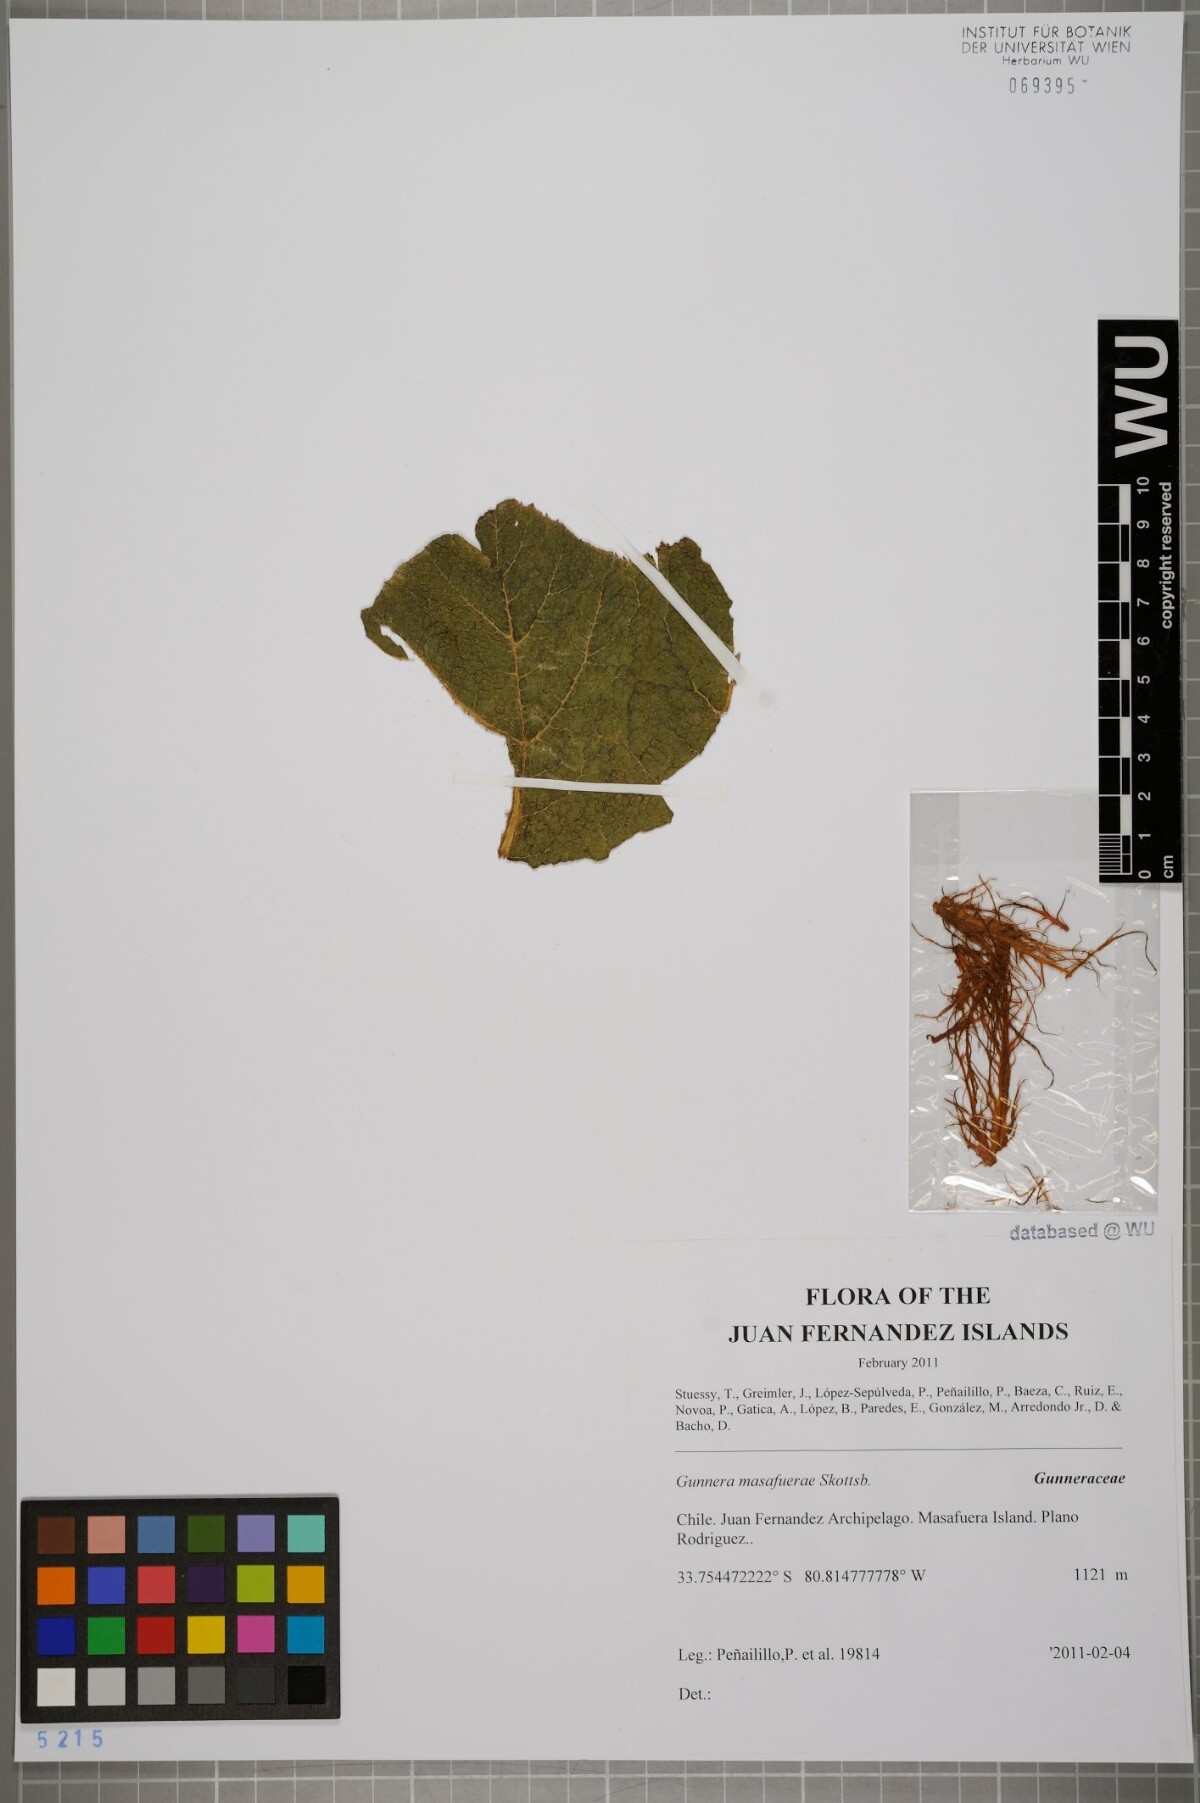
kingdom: Plantae
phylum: Tracheophyta
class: Magnoliopsida
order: Gunnerales
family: Gunneraceae
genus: Gunnera
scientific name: Gunnera masafuerae
